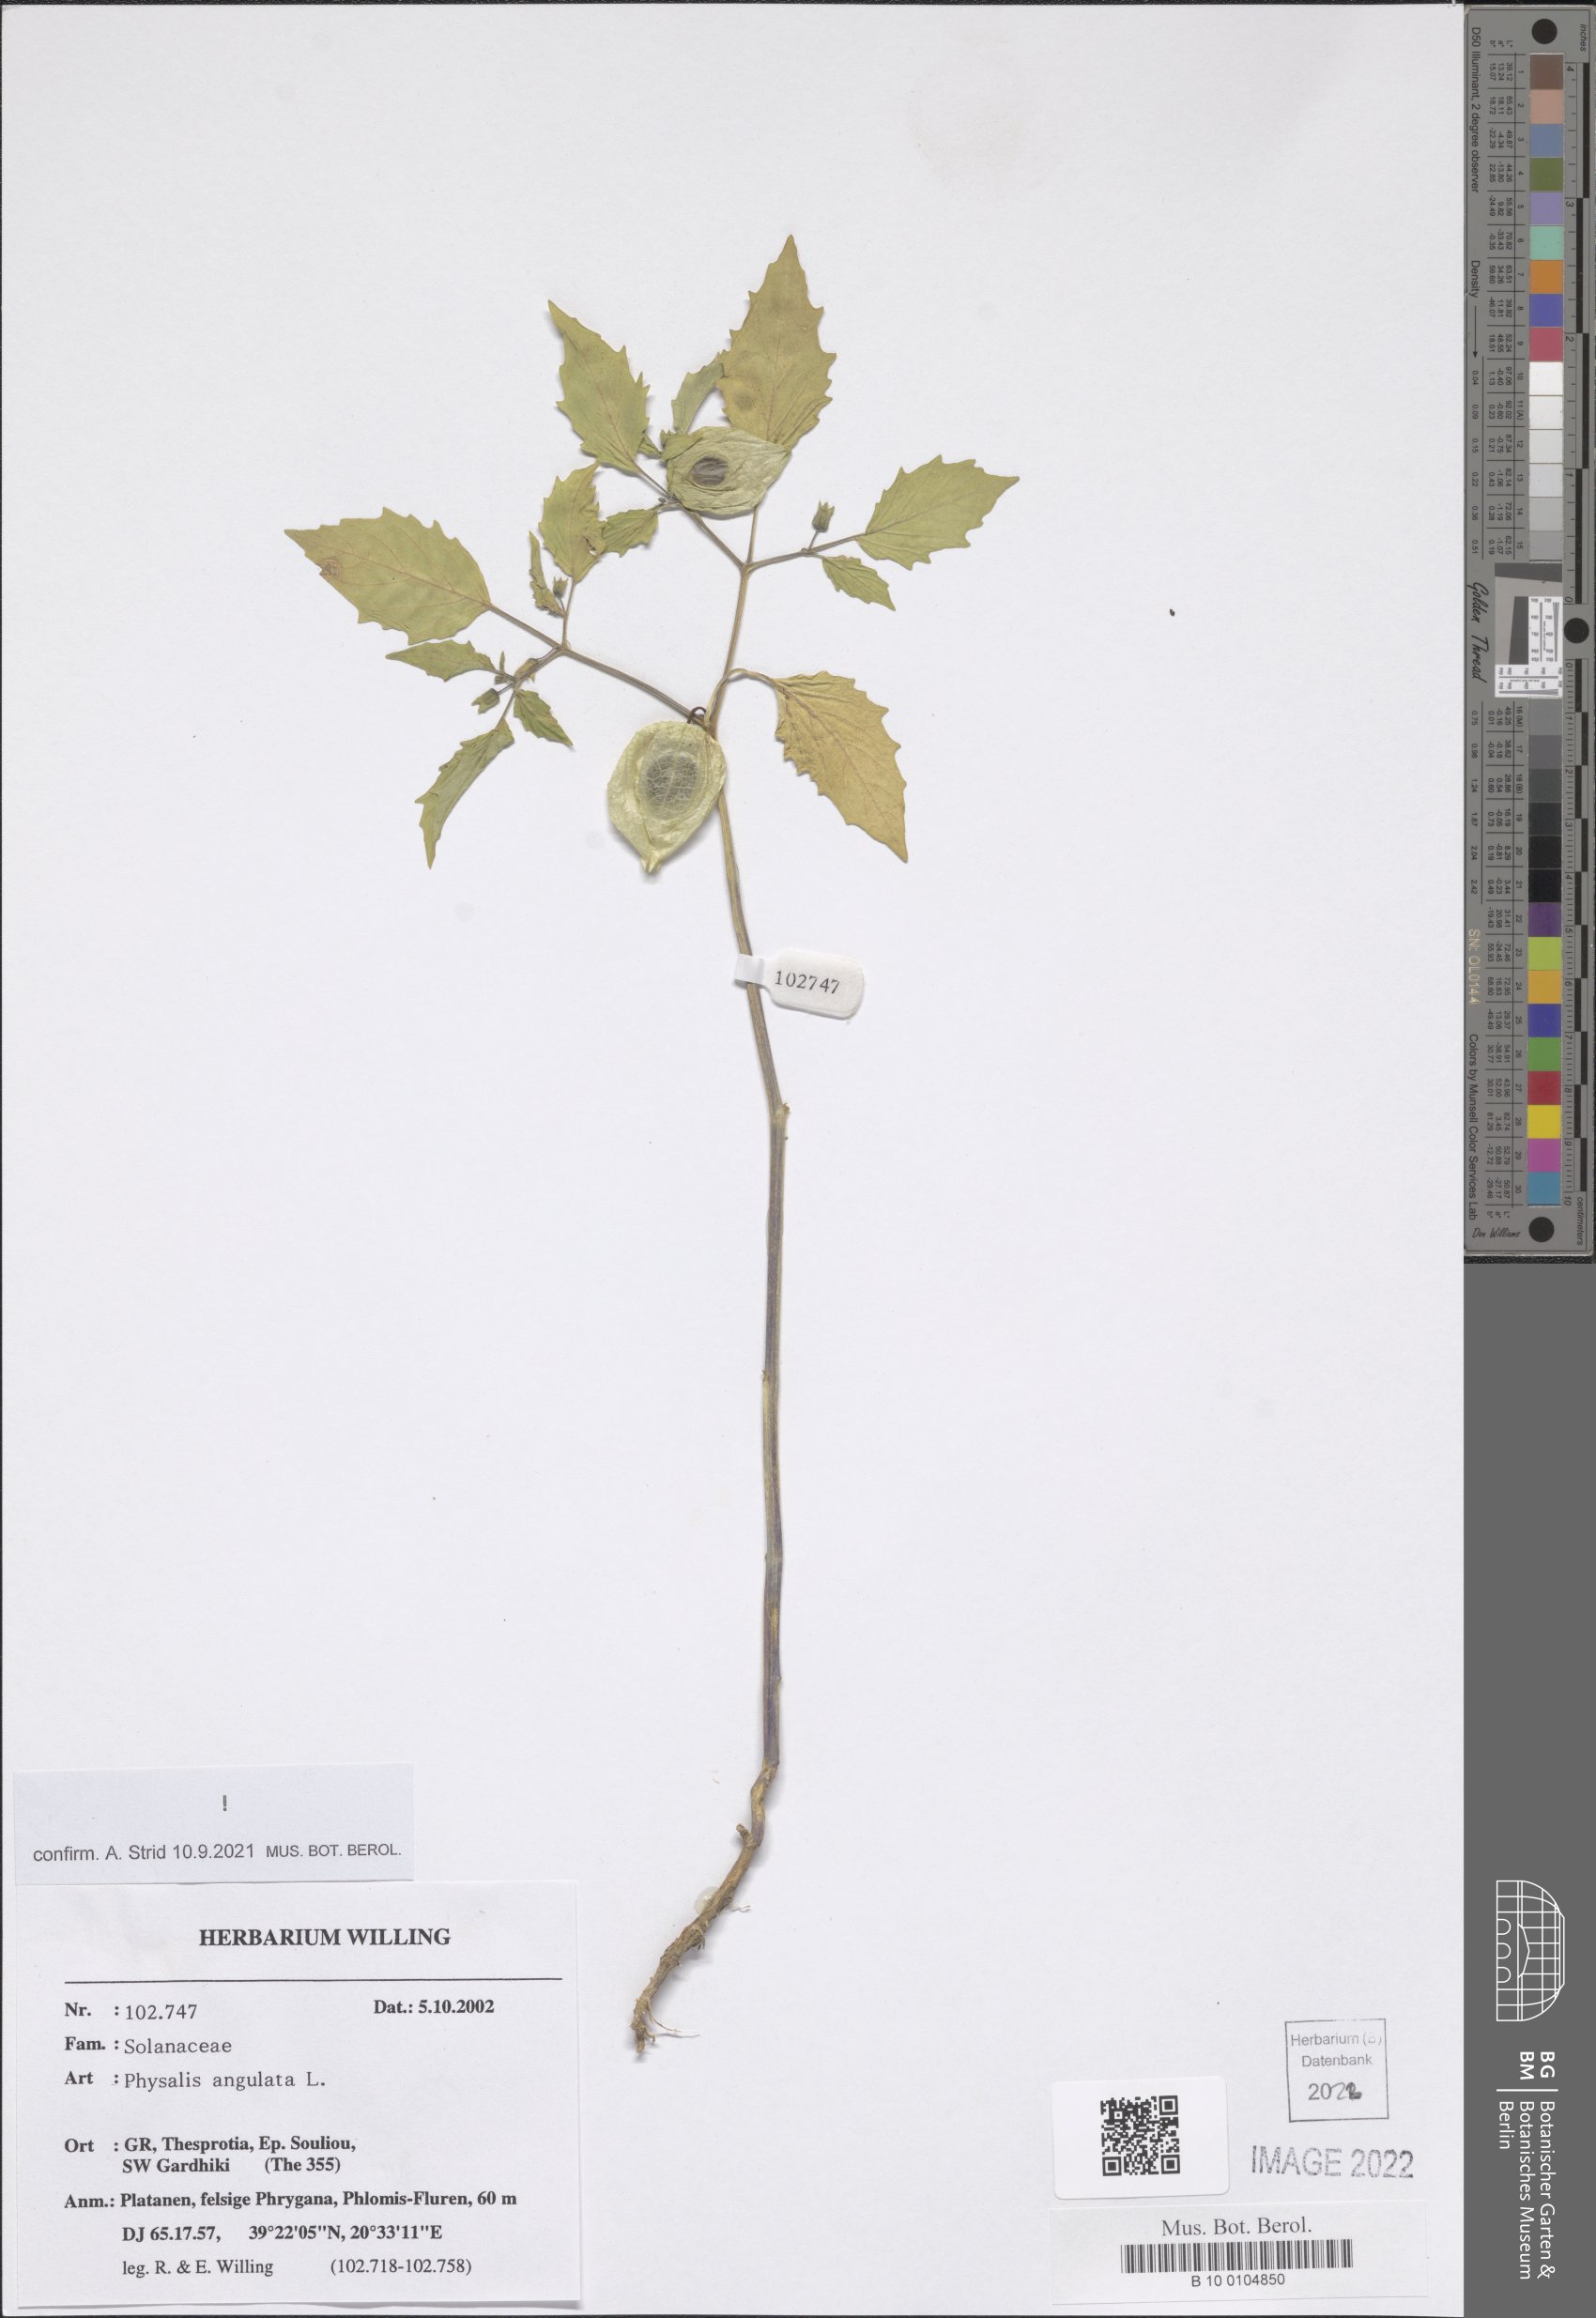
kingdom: Plantae
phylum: Tracheophyta
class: Magnoliopsida
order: Solanales
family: Solanaceae
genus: Physalis
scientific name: Physalis angulata
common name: Angular winter-cherry
